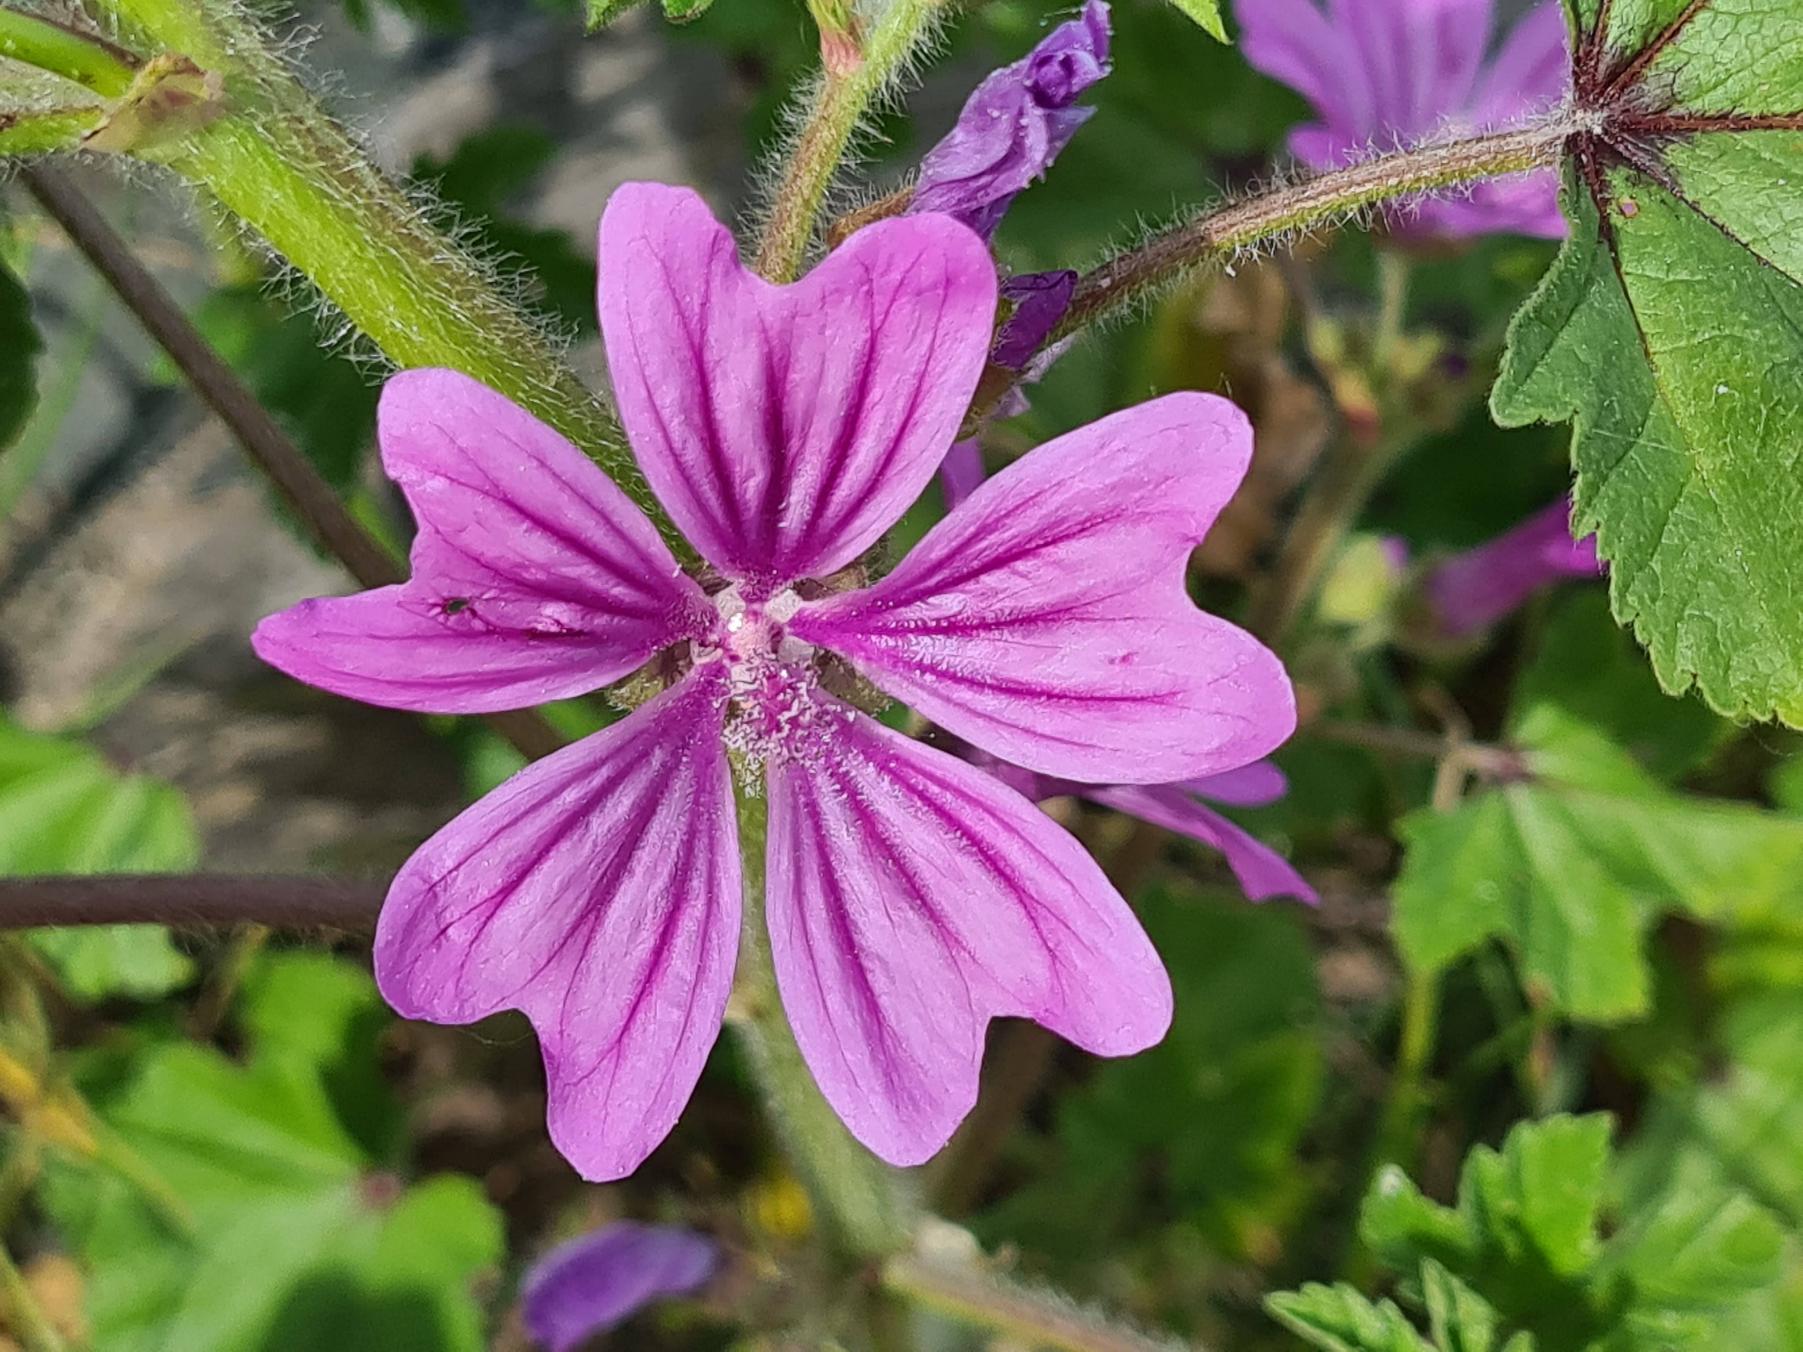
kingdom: Plantae
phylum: Tracheophyta
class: Magnoliopsida
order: Malvales
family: Malvaceae
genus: Malva
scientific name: Malva sylvestris
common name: Almindelig katost
